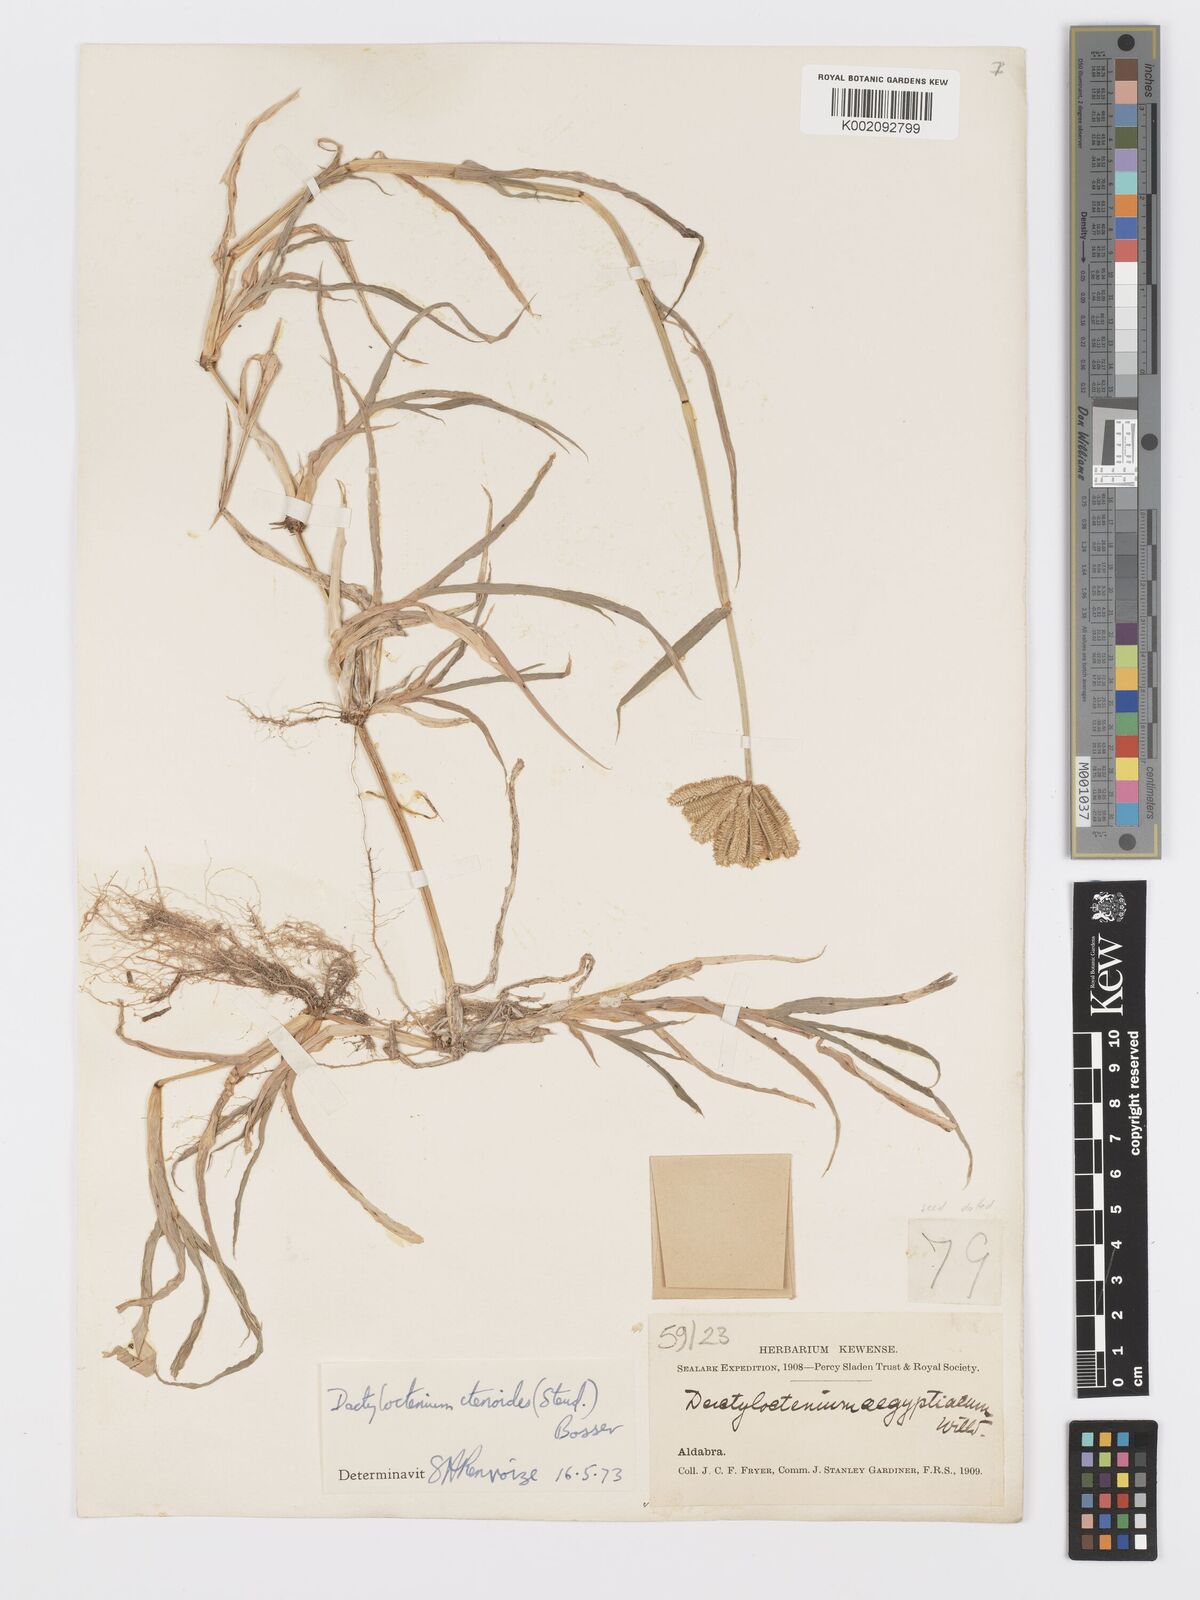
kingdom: Plantae
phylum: Tracheophyta
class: Liliopsida
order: Poales
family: Poaceae
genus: Dactyloctenium
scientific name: Dactyloctenium ctenoides
